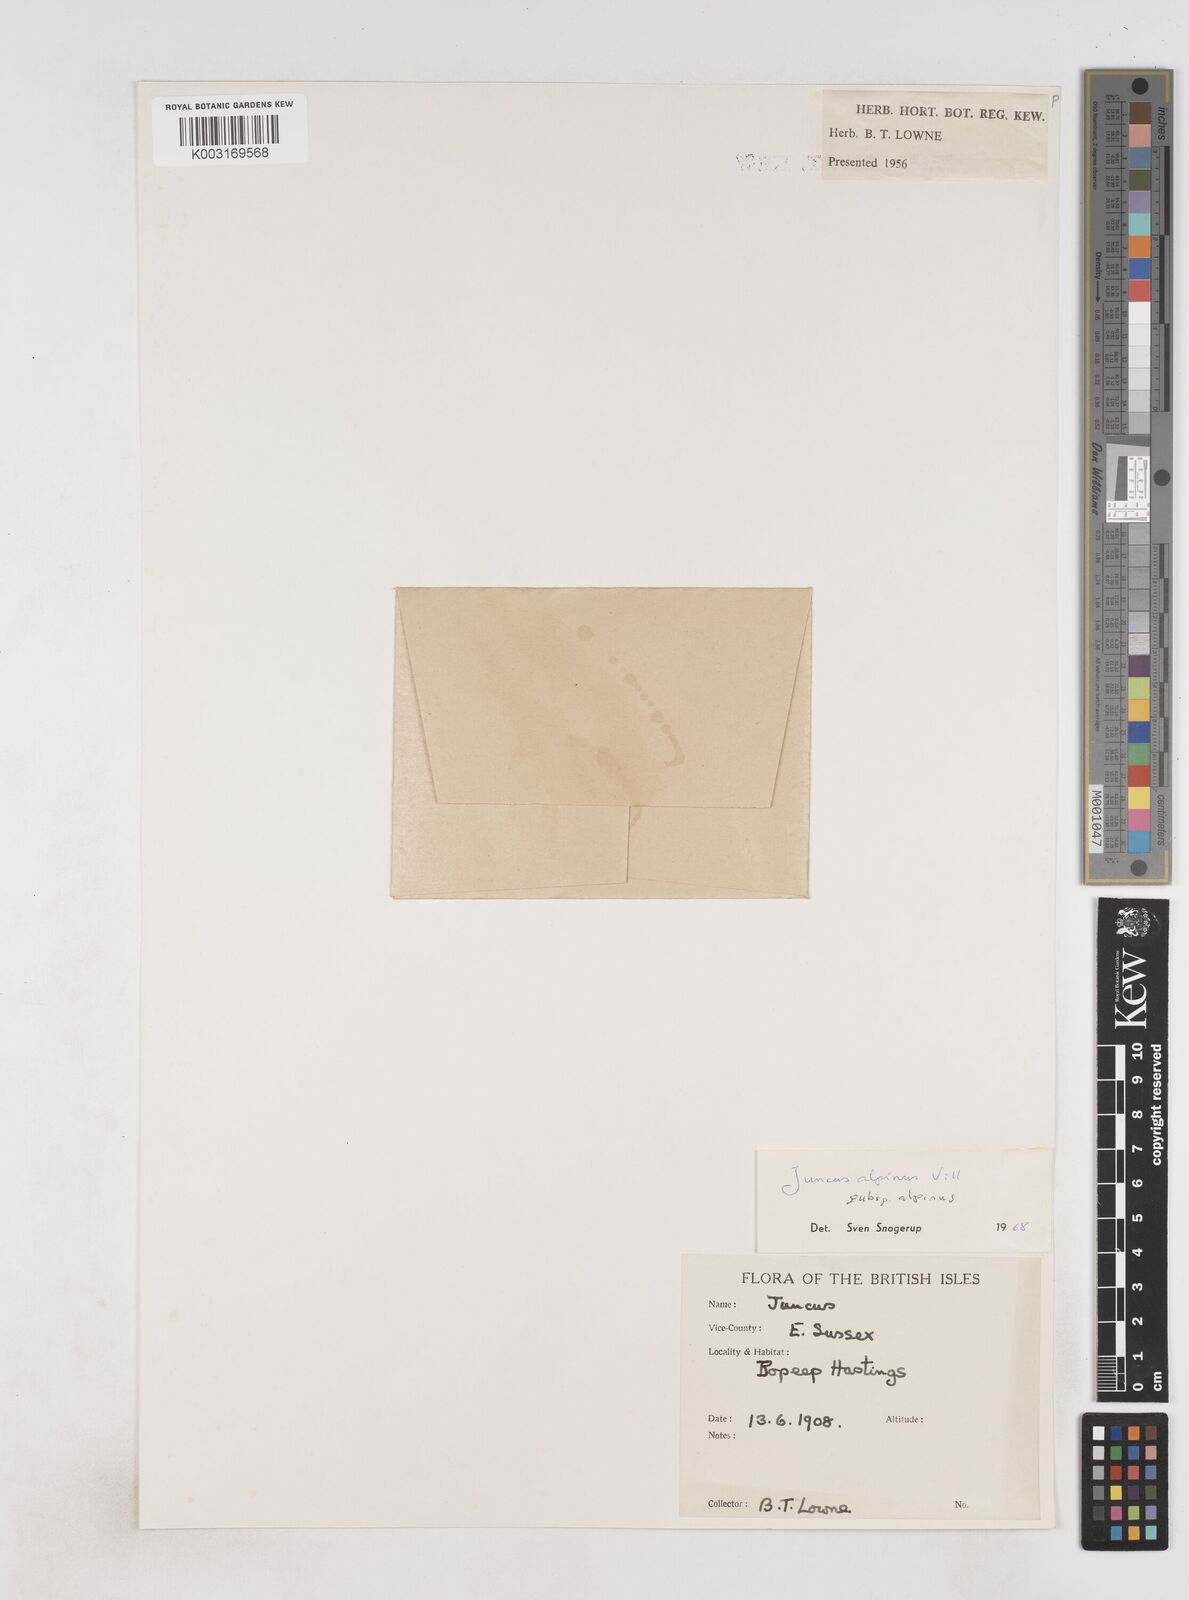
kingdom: Plantae
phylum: Tracheophyta
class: Liliopsida
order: Poales
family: Juncaceae
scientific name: Juncaceae
